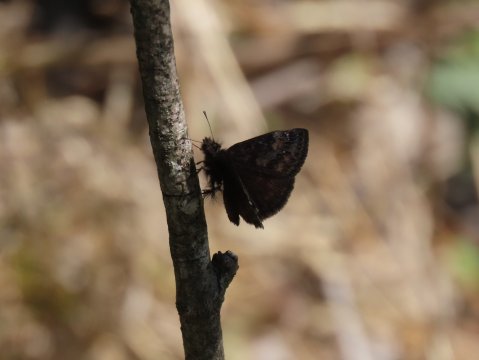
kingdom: Animalia
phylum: Arthropoda
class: Insecta
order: Lepidoptera
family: Hesperiidae
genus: Gesta
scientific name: Gesta
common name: Wild Indigo Duskywing
